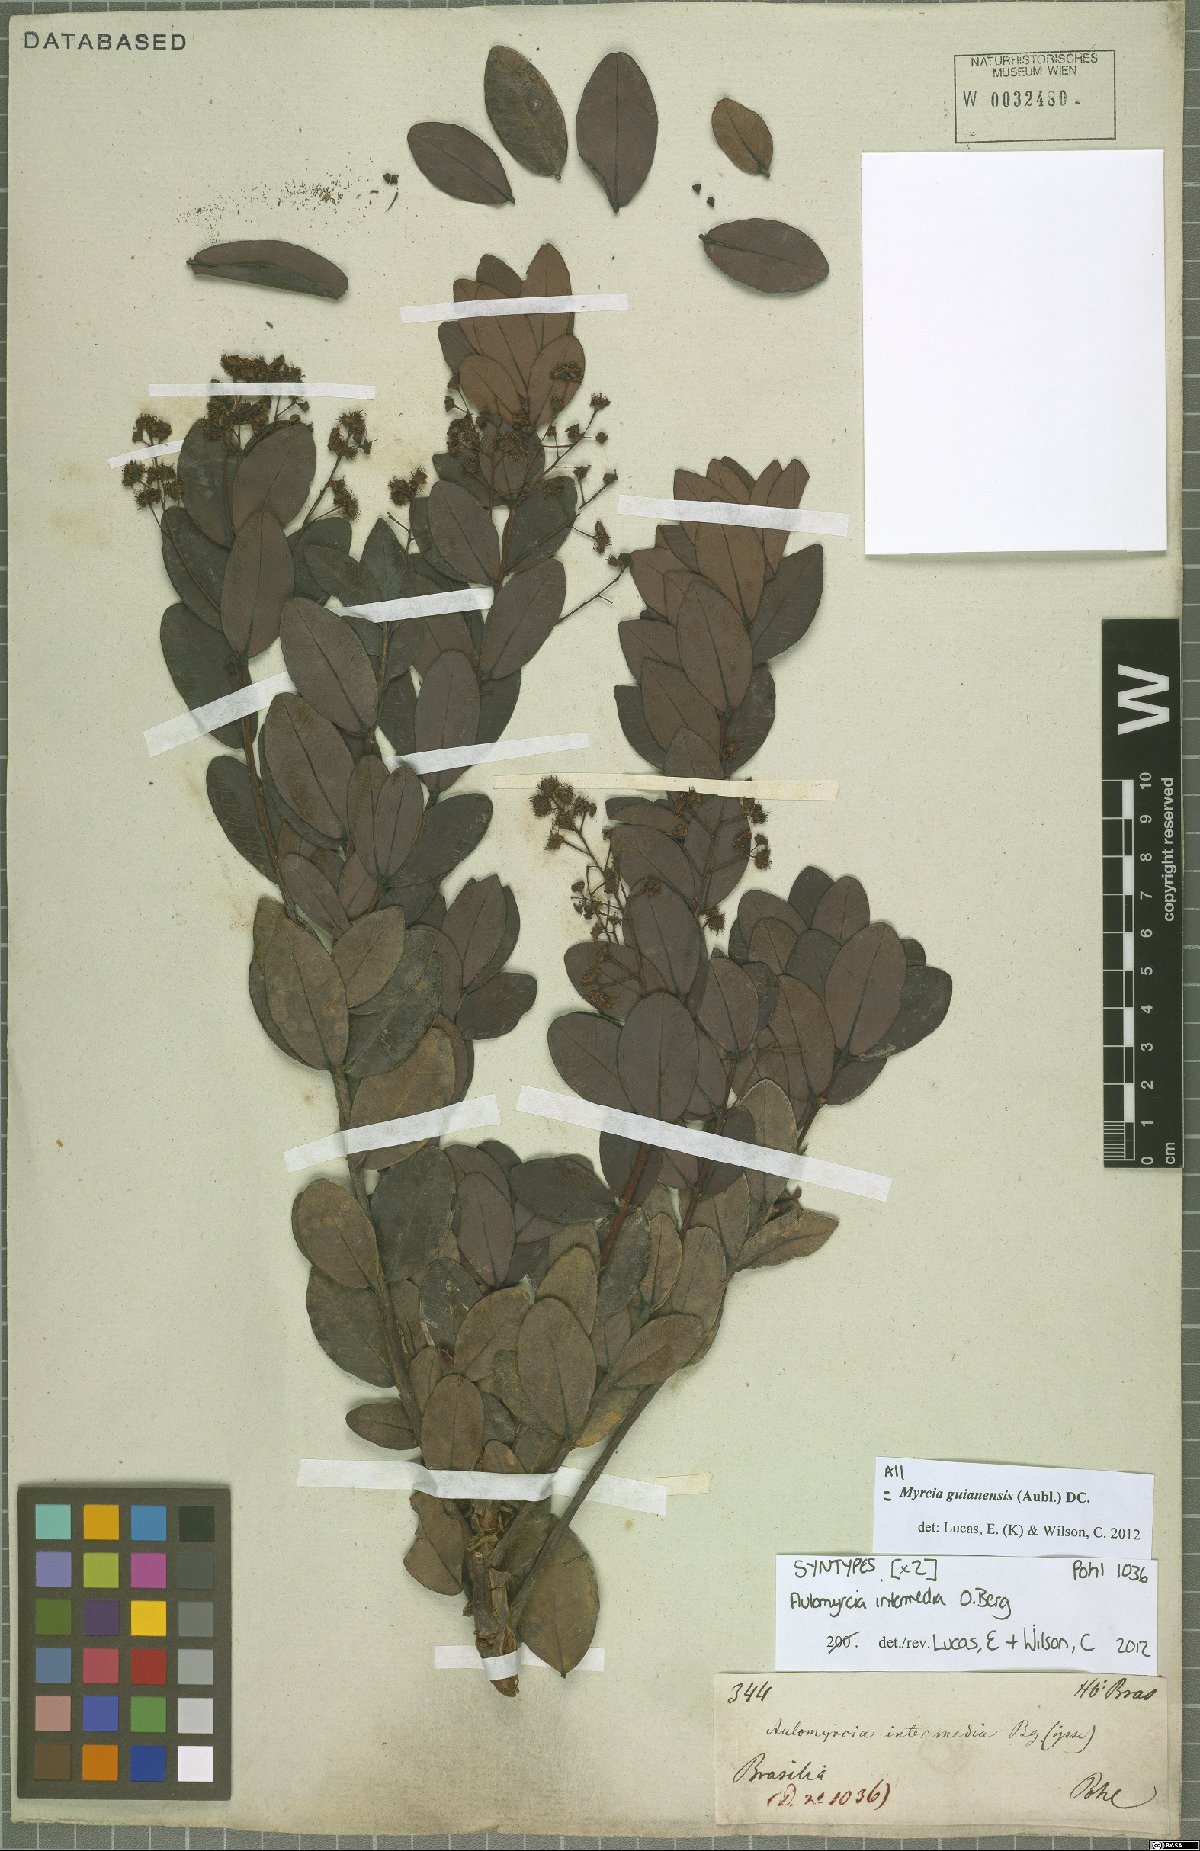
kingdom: Plantae
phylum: Tracheophyta
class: Magnoliopsida
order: Myrtales
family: Myrtaceae
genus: Myrcia
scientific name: Myrcia guianensis
